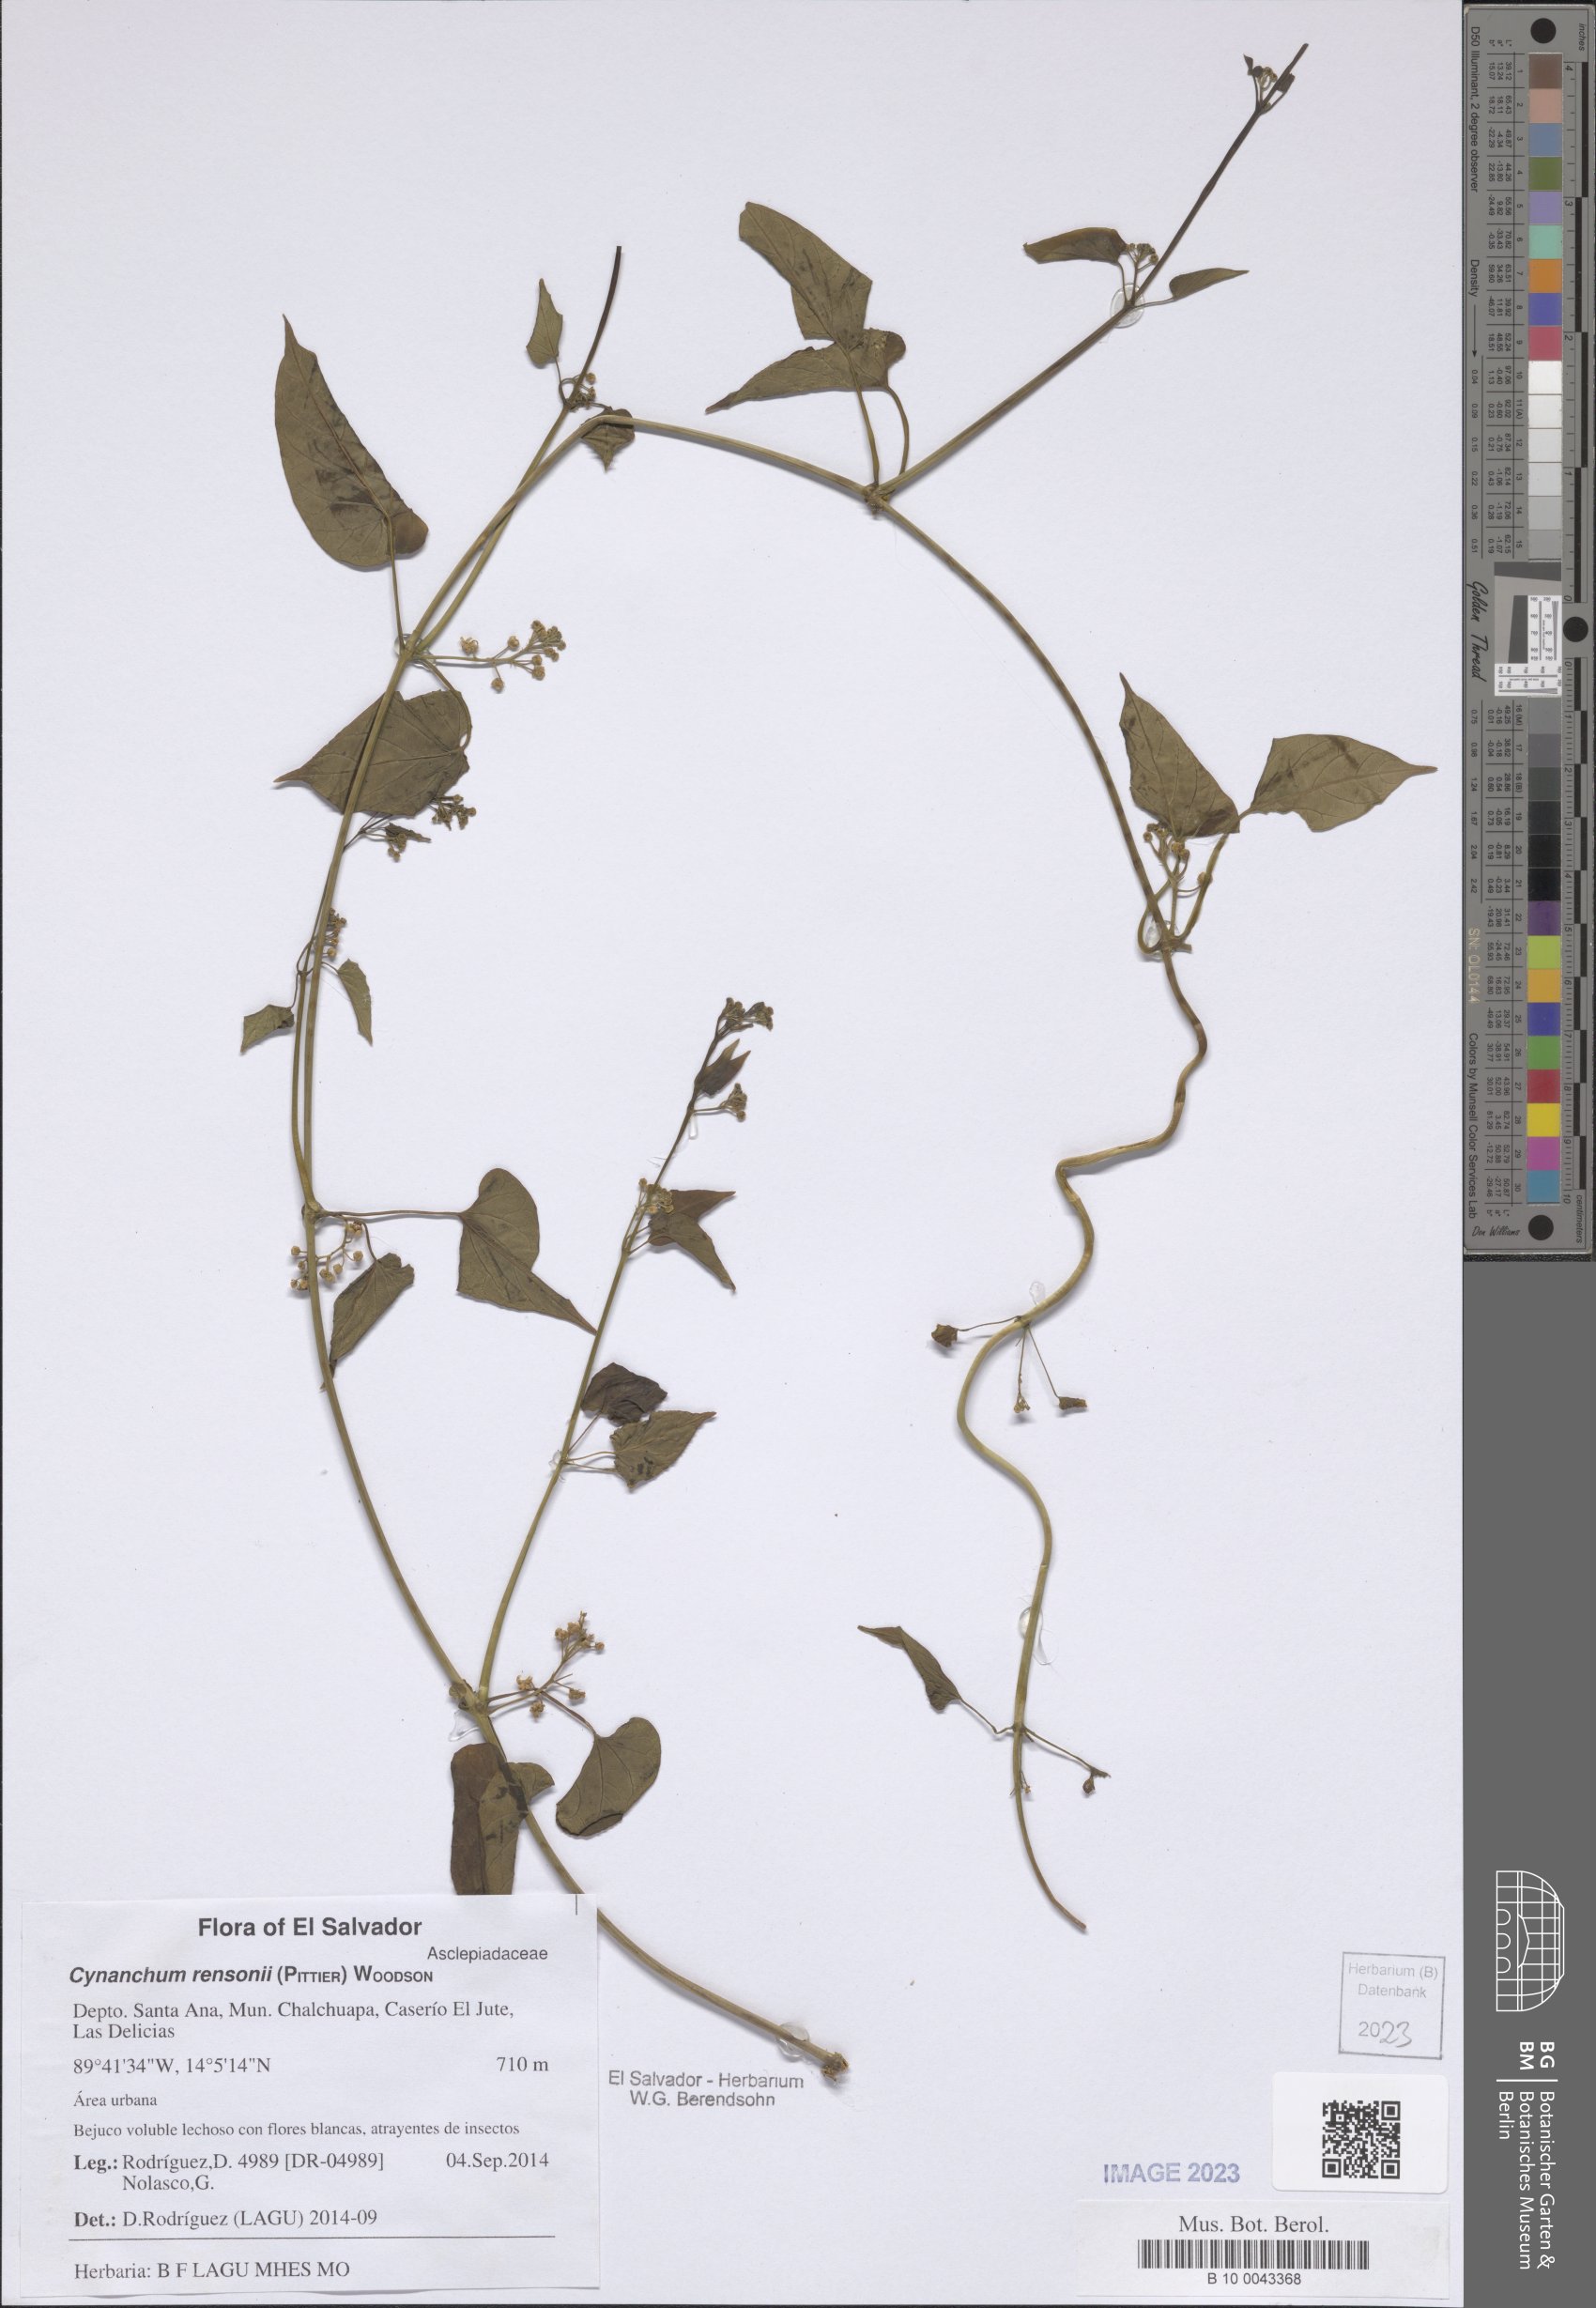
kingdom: Plantae
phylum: Tracheophyta
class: Magnoliopsida
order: Gentianales
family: Apocynaceae
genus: Cynanchum
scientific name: Cynanchum rensonii
